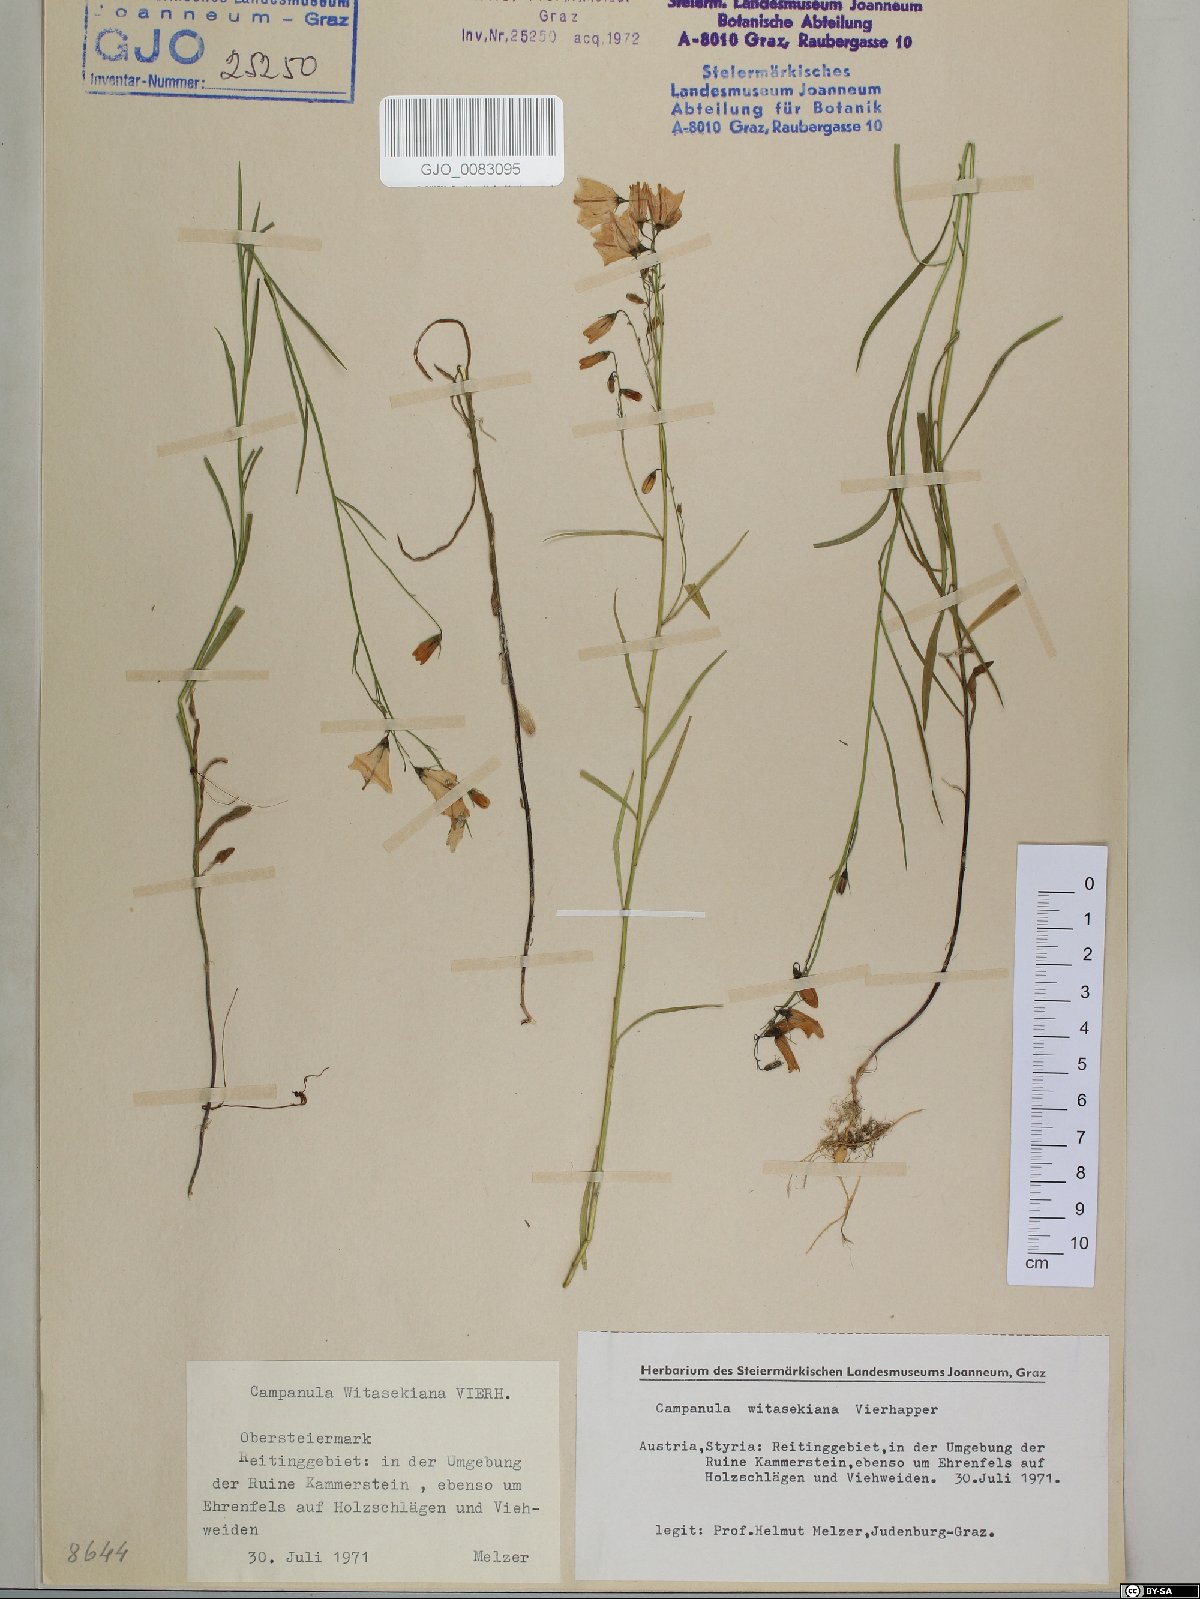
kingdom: Plantae
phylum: Tracheophyta
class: Magnoliopsida
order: Asterales
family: Campanulaceae
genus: Campanula
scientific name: Campanula witasekiana
